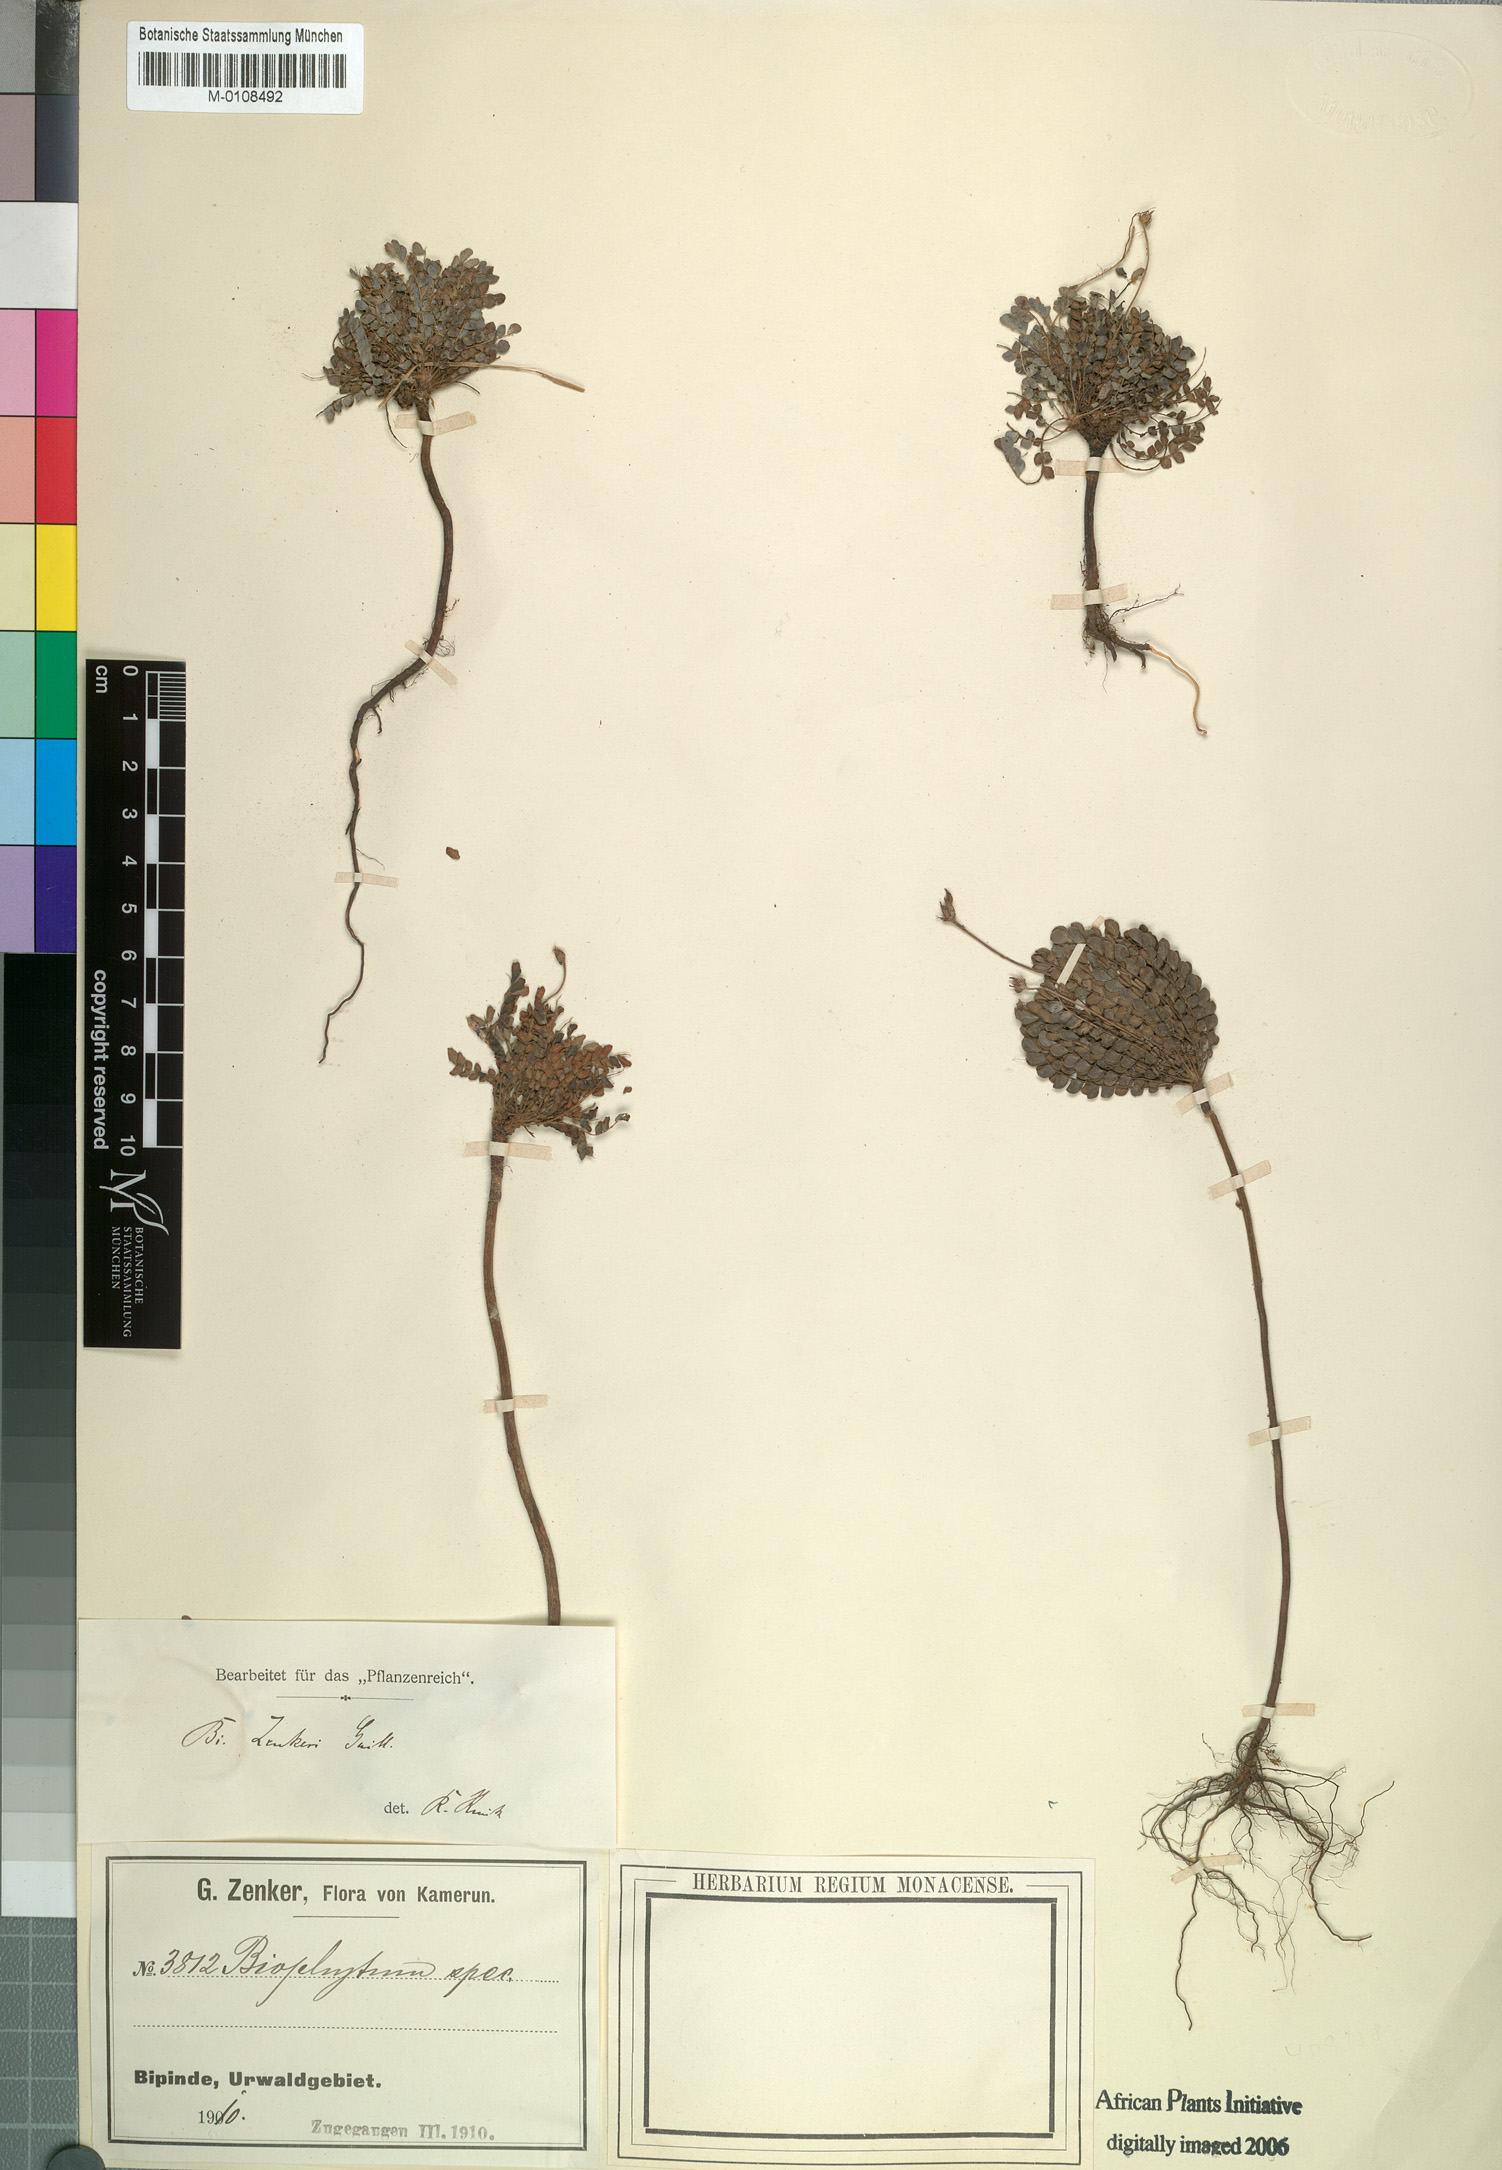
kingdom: Plantae
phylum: Tracheophyta
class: Magnoliopsida
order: Oxalidales
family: Oxalidaceae
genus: Biophytum
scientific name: Biophytum zenkeri
